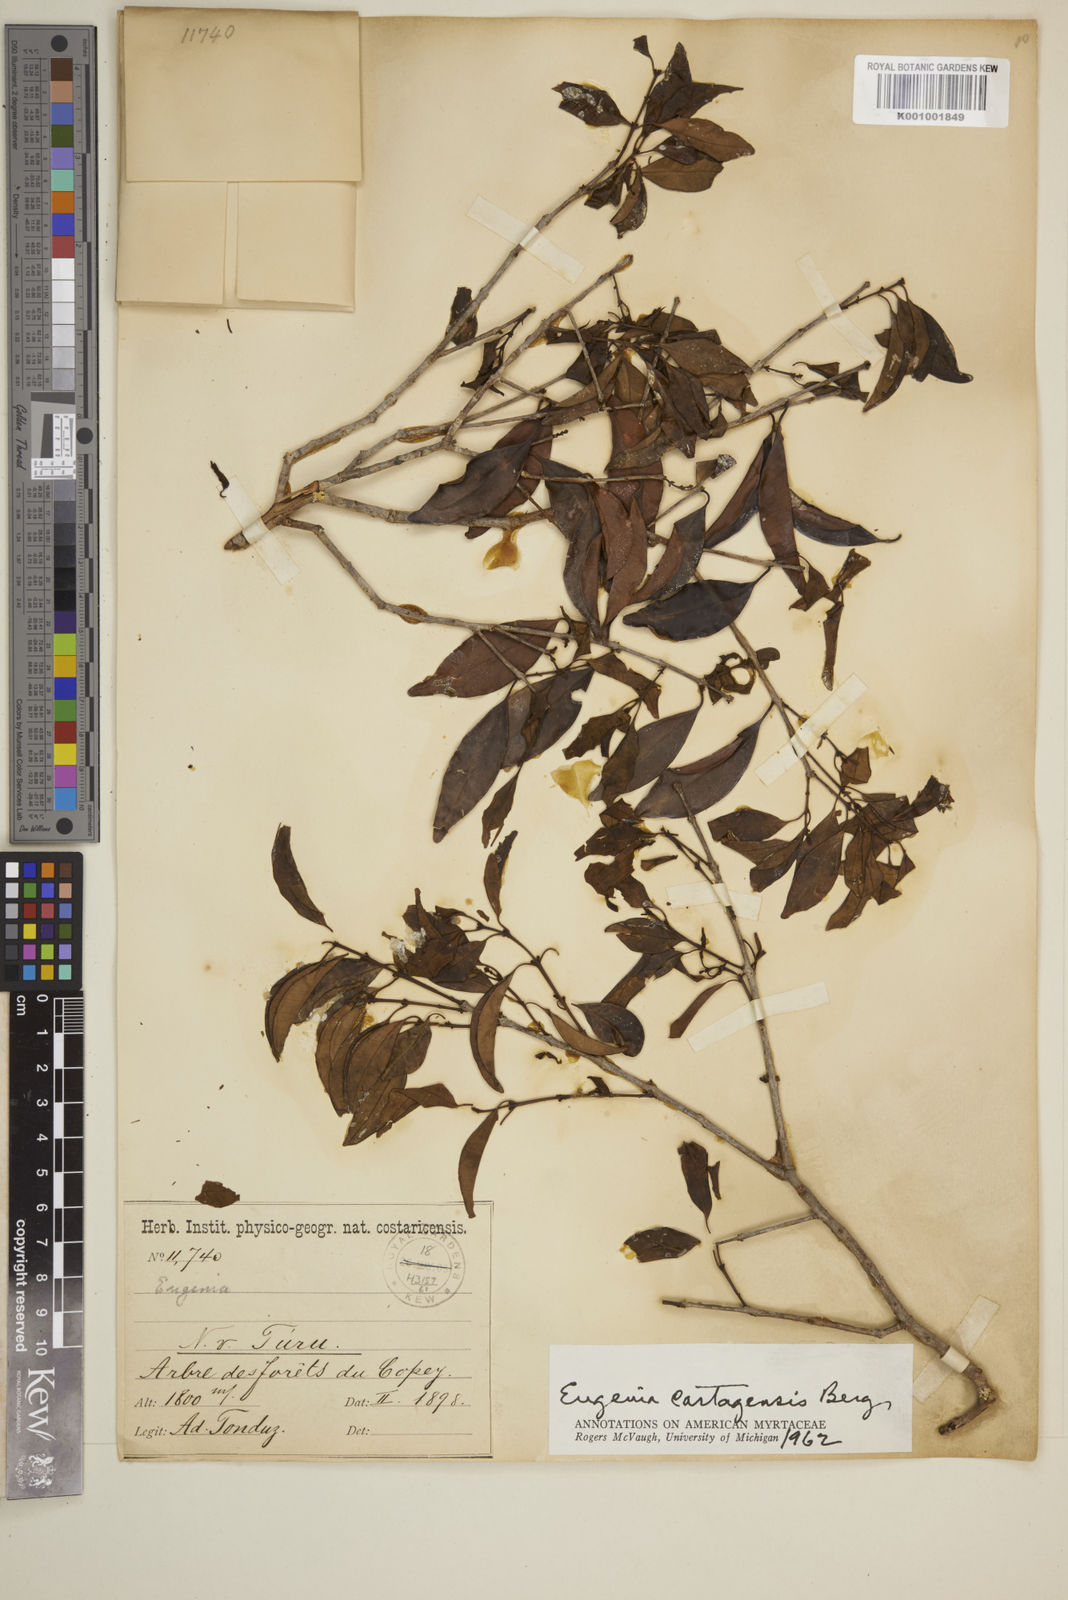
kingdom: Plantae
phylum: Tracheophyta
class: Magnoliopsida
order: Myrtales
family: Myrtaceae
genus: Eugenia
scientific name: Eugenia cartagensis
